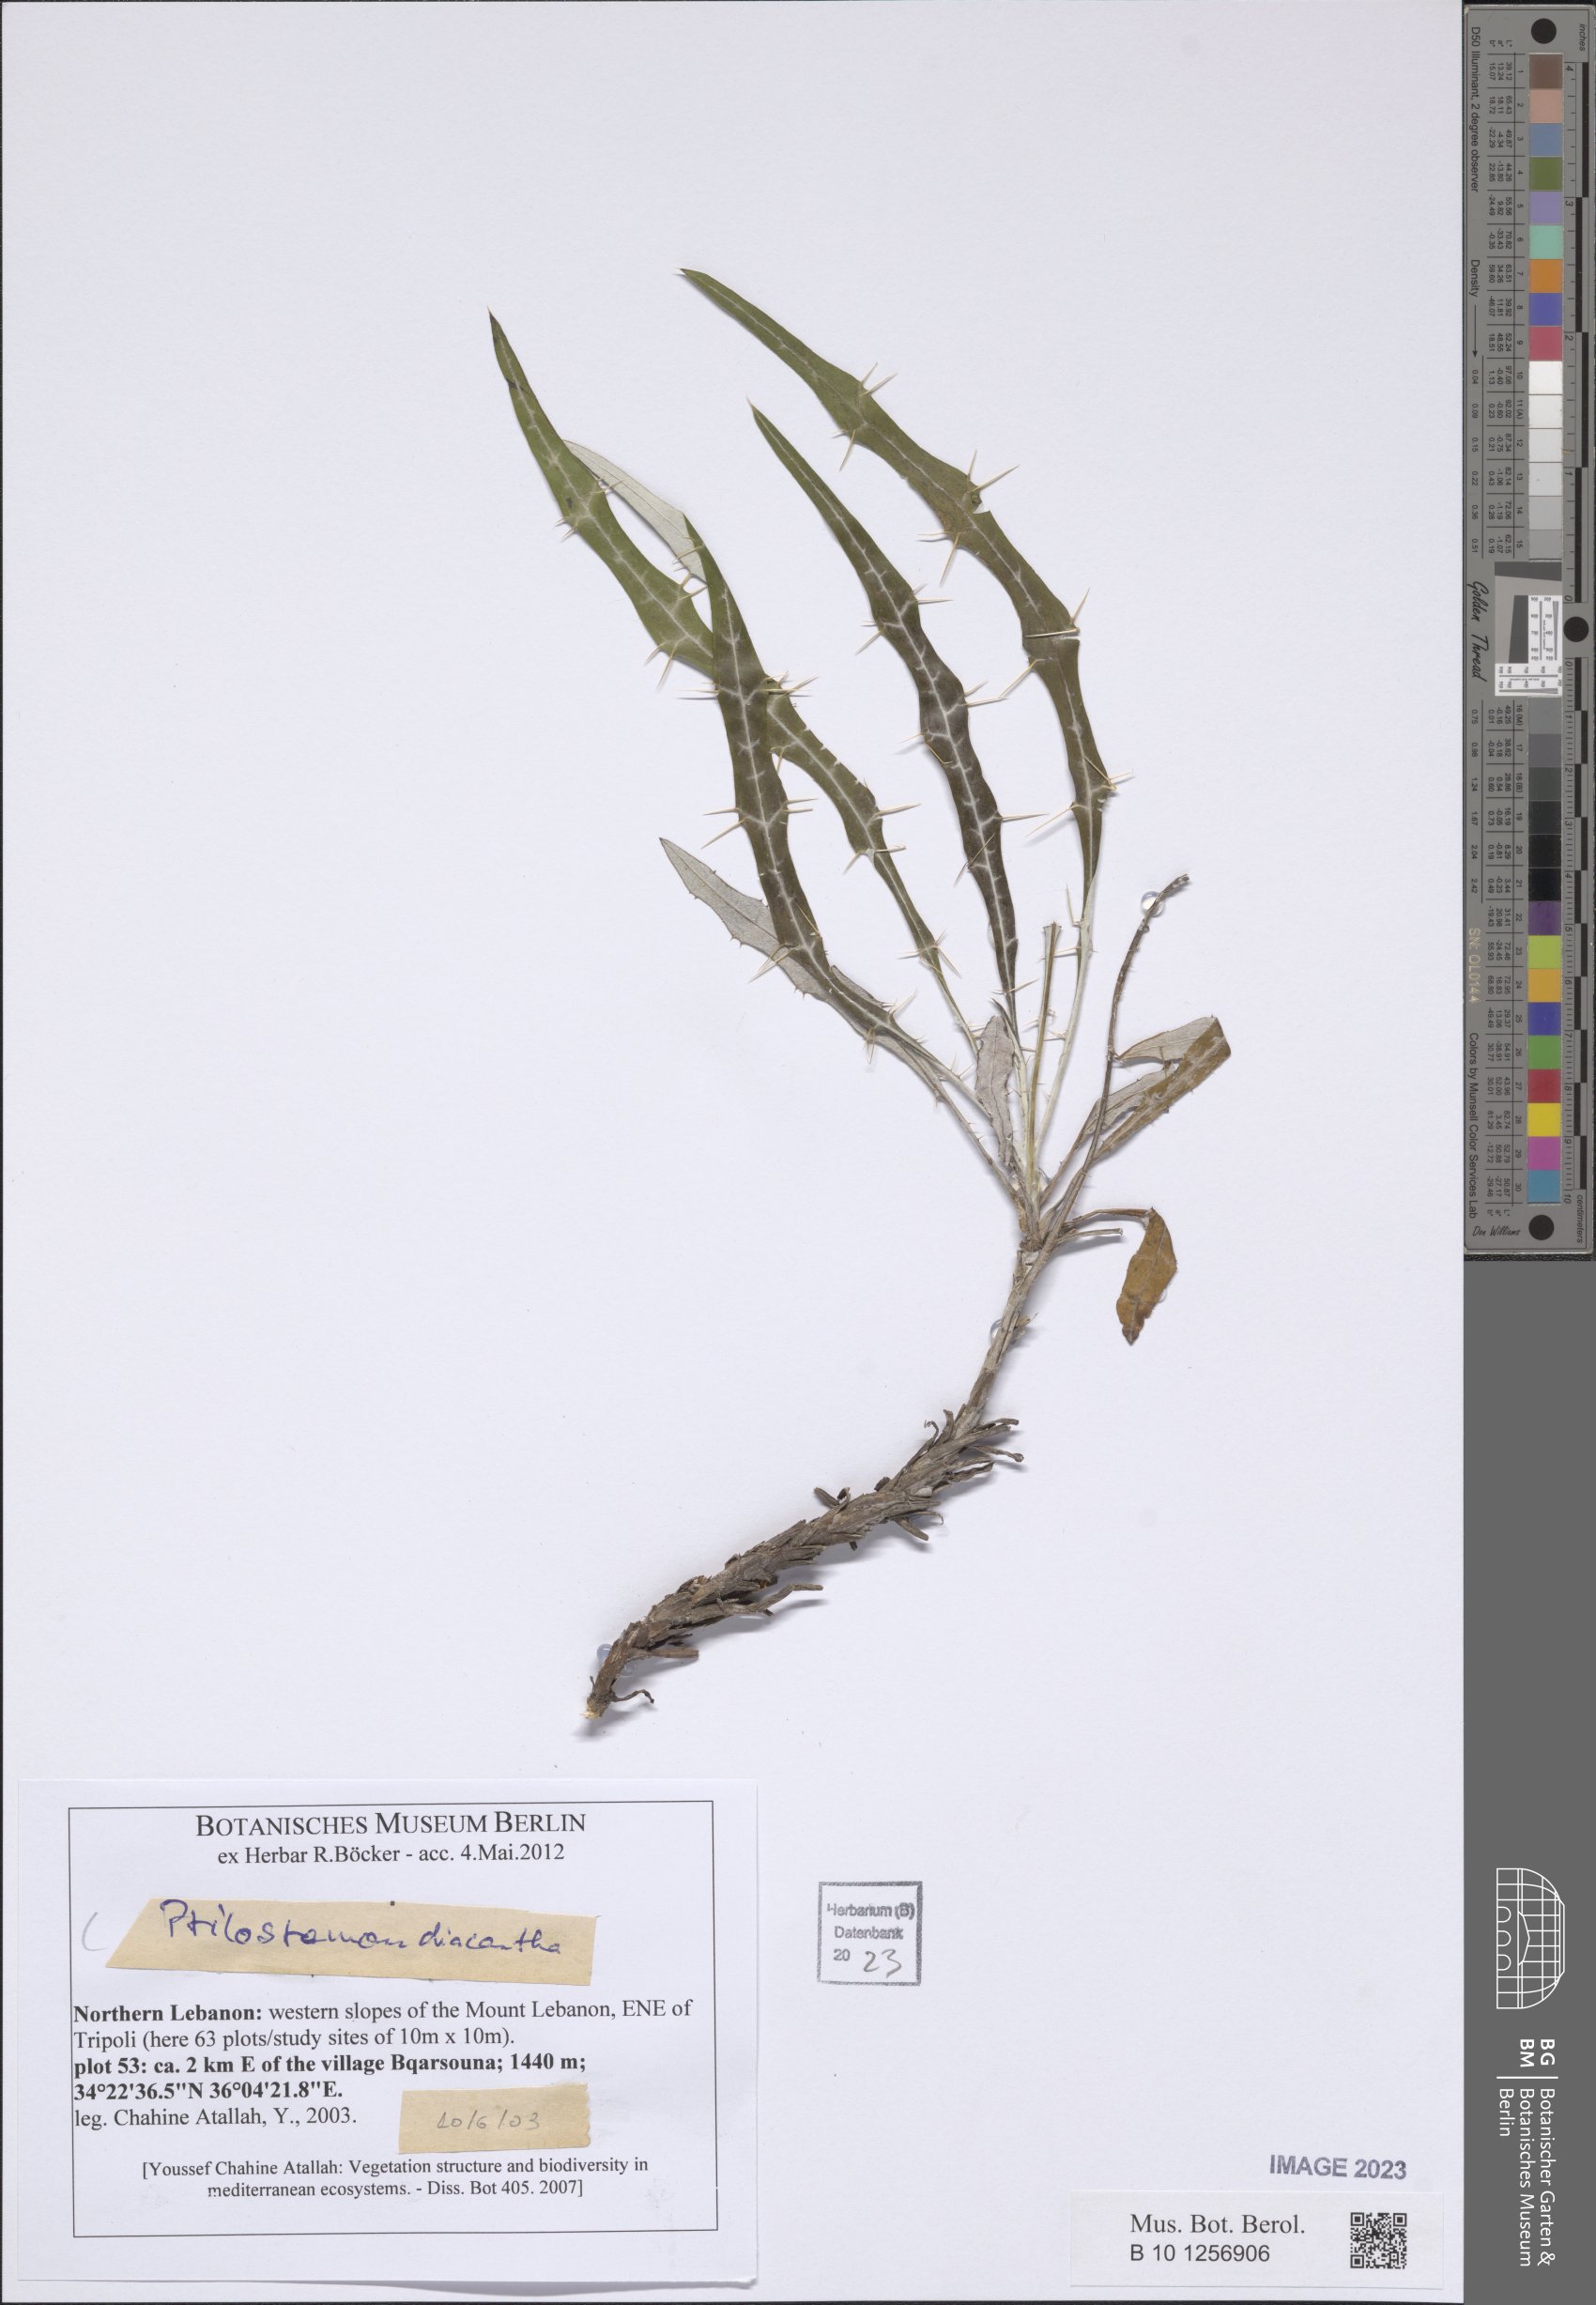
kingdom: Plantae
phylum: Tracheophyta
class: Magnoliopsida
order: Asterales
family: Asteraceae
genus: Ptilostemon
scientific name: Ptilostemon diacanthus
